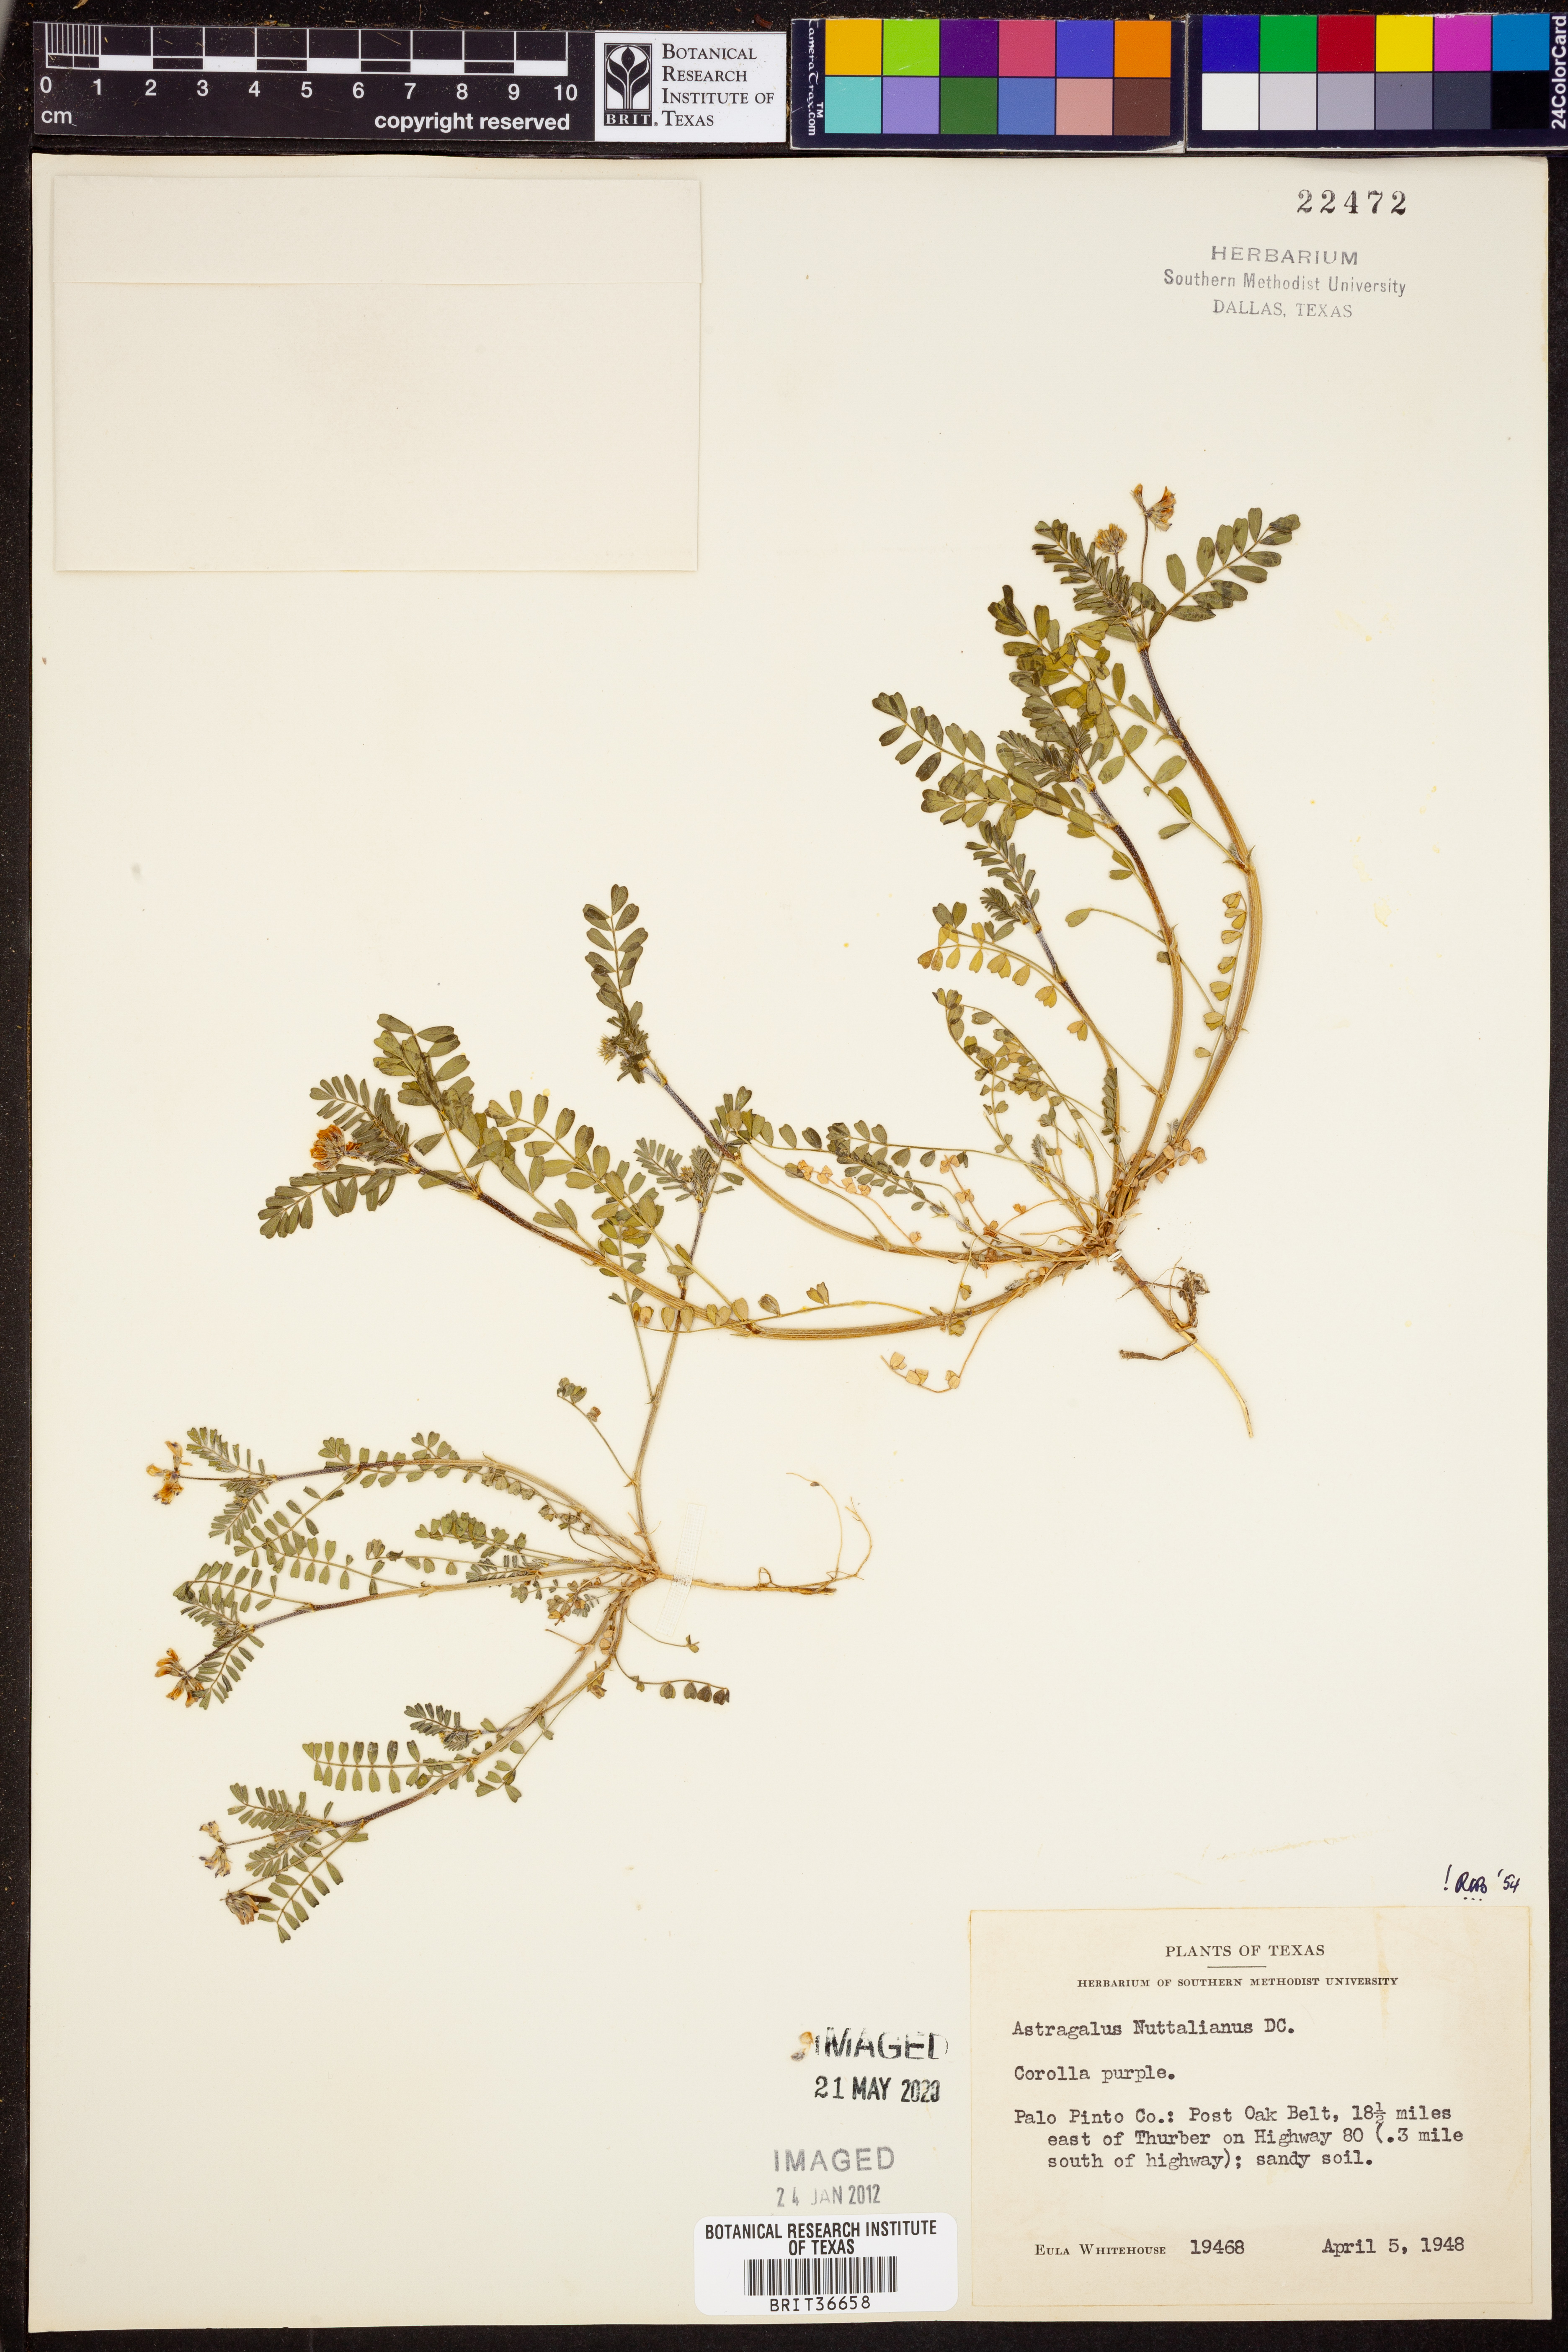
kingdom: Plantae
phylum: Tracheophyta
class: Magnoliopsida
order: Fabales
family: Fabaceae
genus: Astragalus
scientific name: Astragalus nuttallianus
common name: Smallflowered milkvetch
